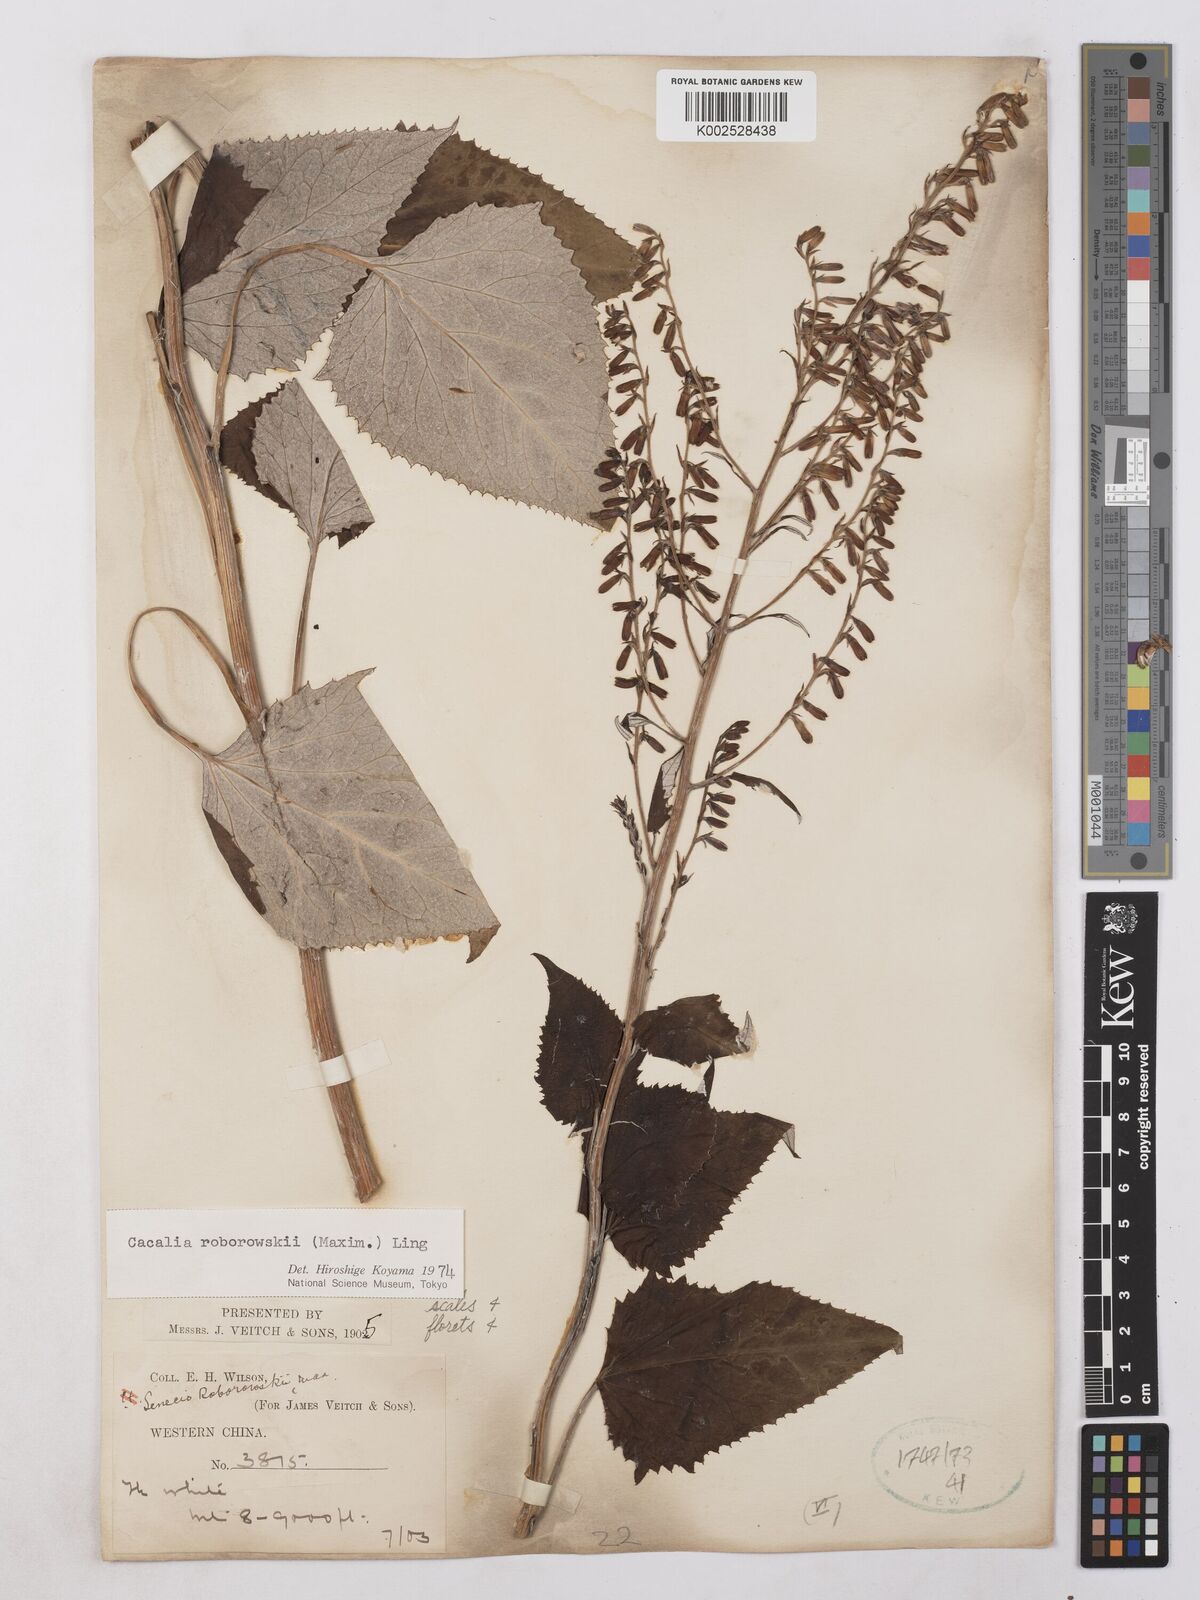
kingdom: Plantae
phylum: Tracheophyta
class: Magnoliopsida
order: Asterales
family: Asteraceae
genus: Parasenecio
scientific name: Parasenecio roborowskii
